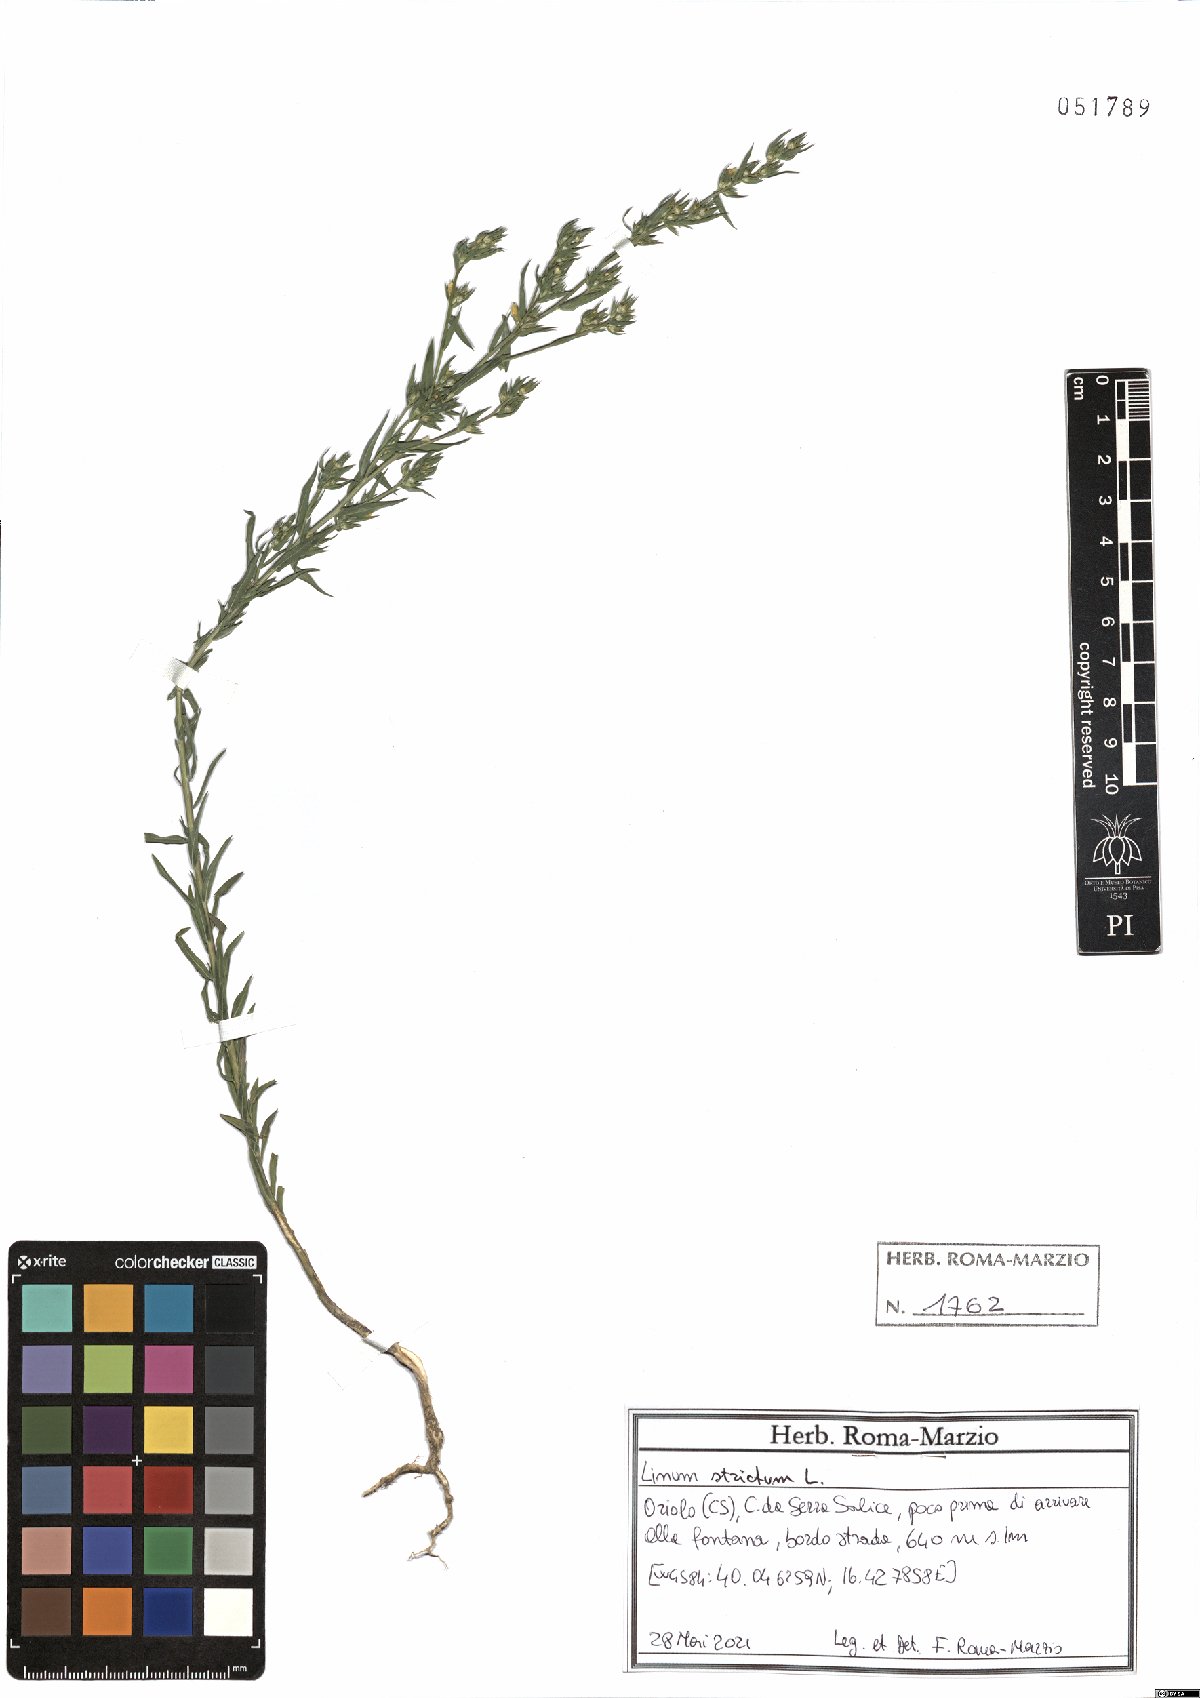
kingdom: Plantae
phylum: Tracheophyta
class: Magnoliopsida
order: Malpighiales
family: Linaceae
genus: Linum
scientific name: Linum strictum
